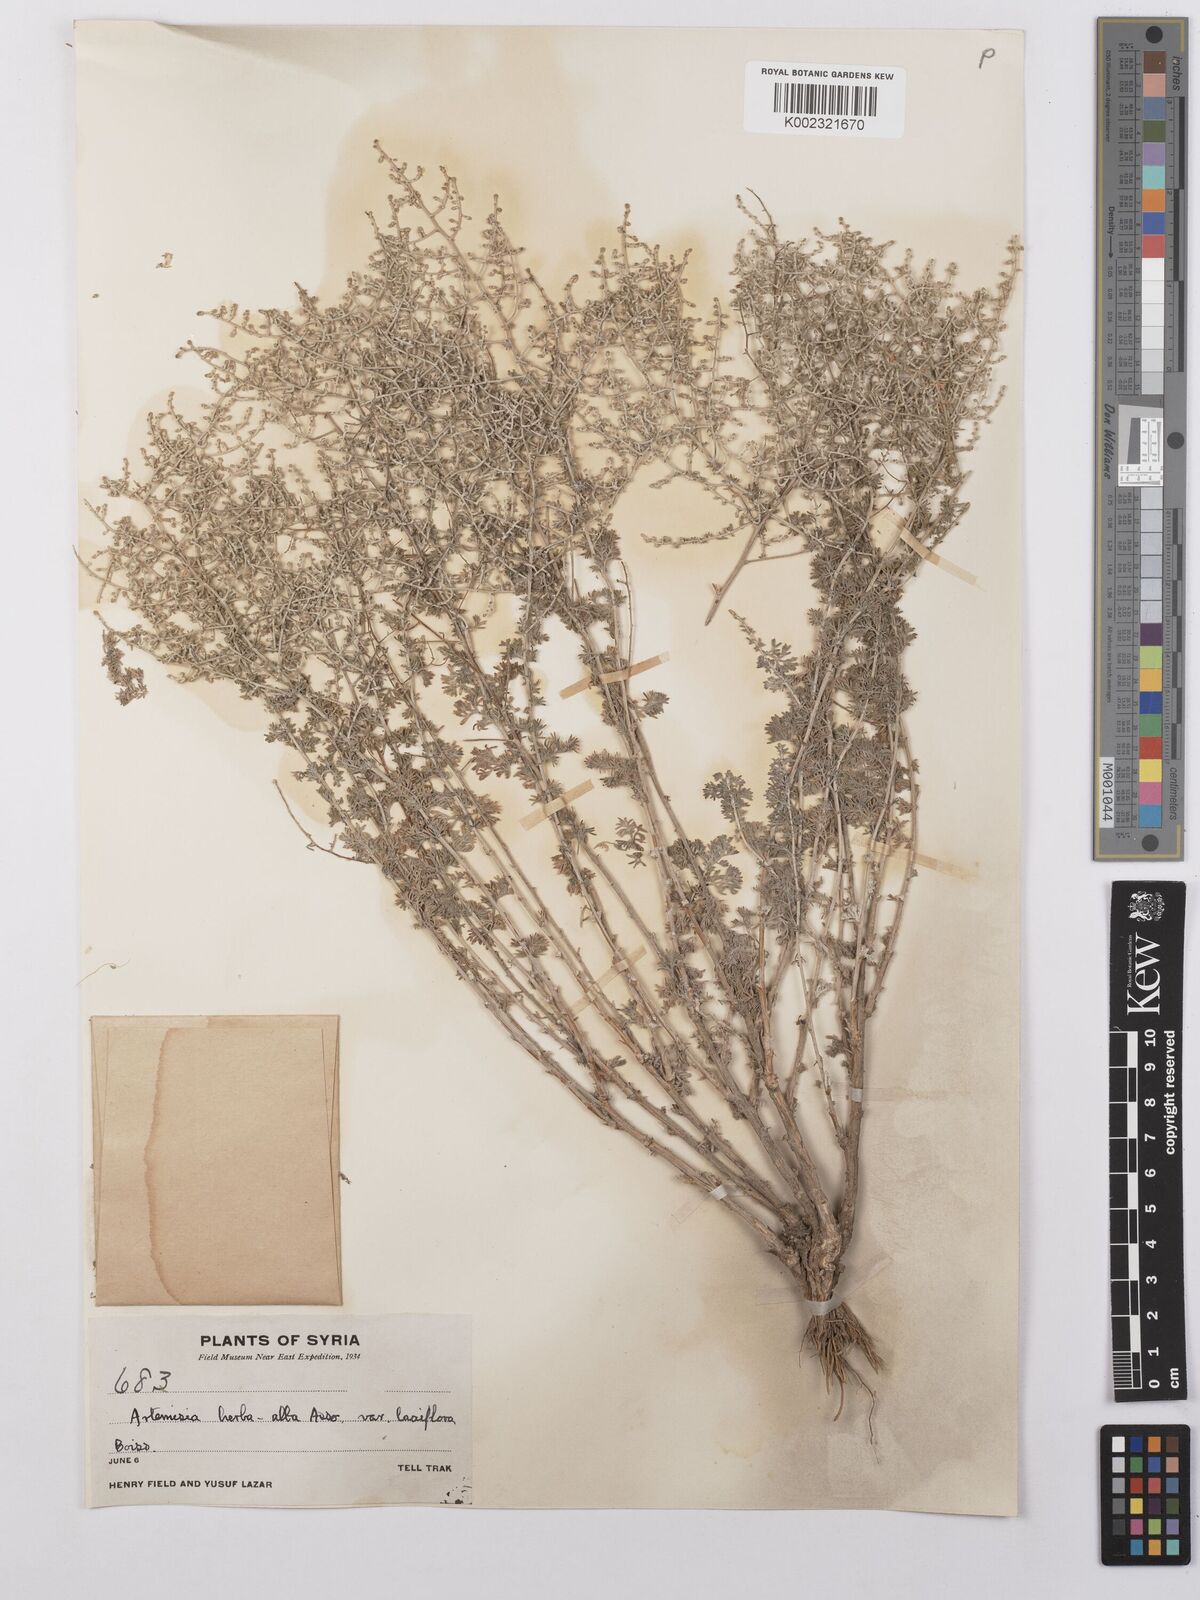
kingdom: Plantae
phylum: Tracheophyta
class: Magnoliopsida
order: Asterales
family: Asteraceae
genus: Artemisia
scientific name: Artemisia herba-alba
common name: White wormwood
